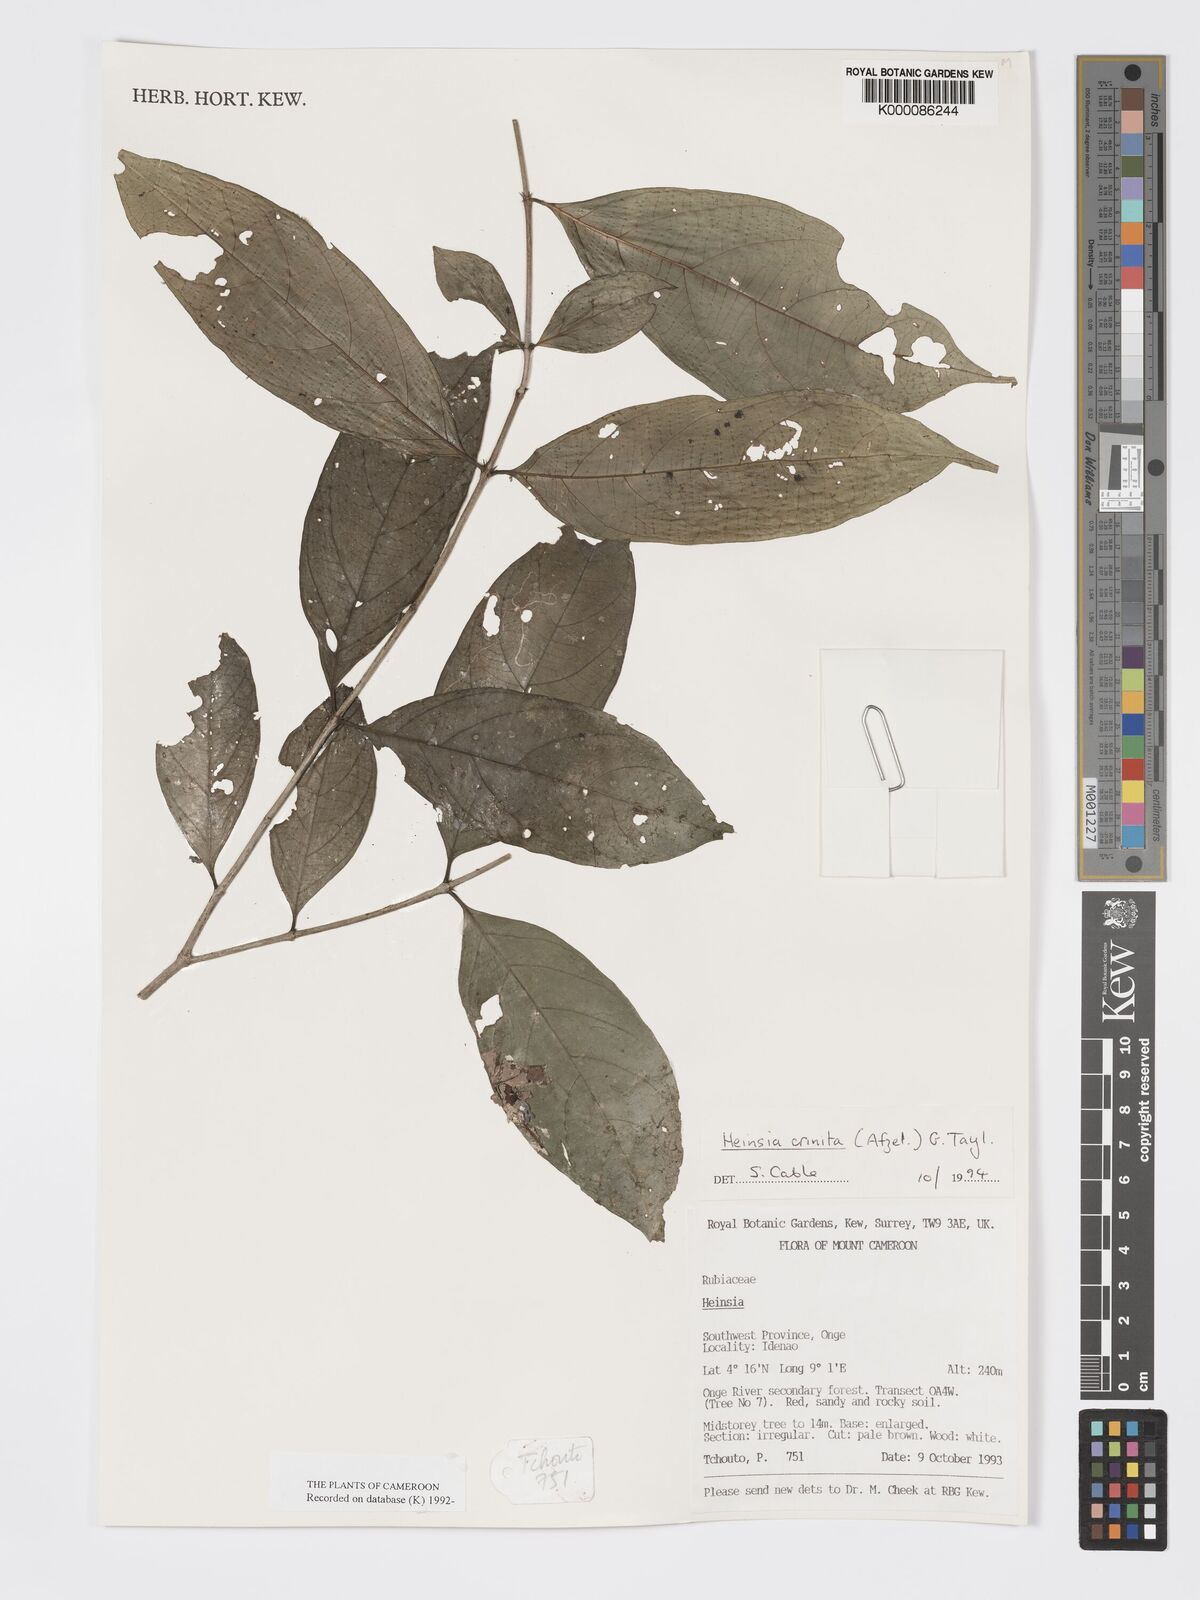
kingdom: Plantae
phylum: Tracheophyta
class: Magnoliopsida
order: Gentianales
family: Rubiaceae
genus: Heinsia
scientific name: Heinsia crinita
